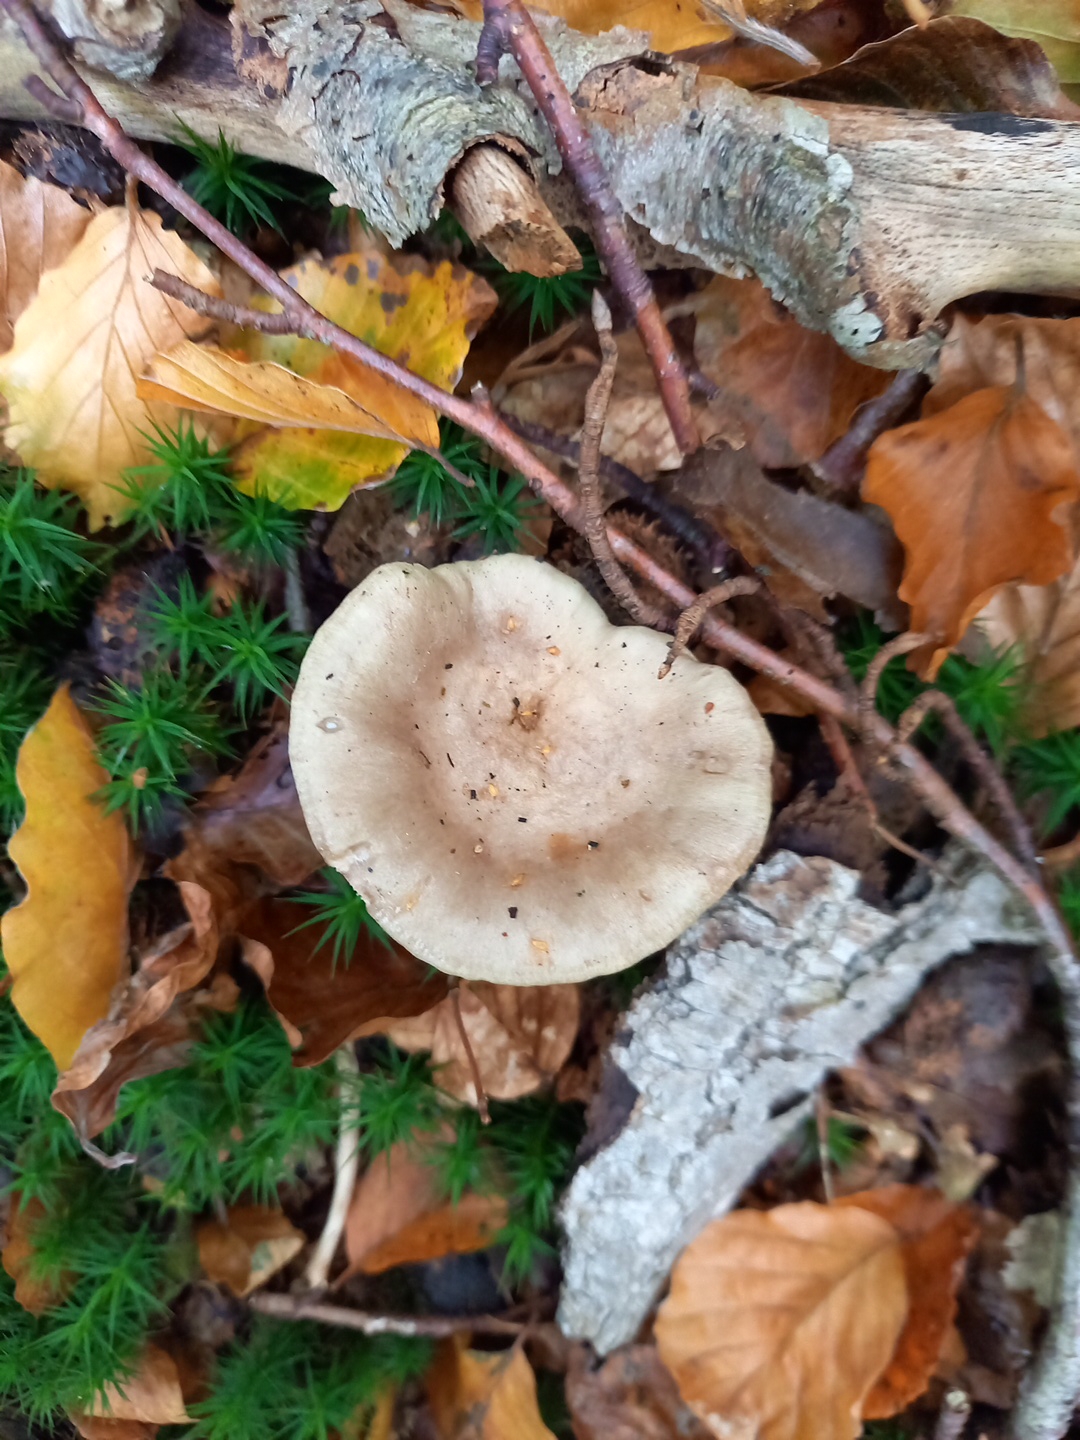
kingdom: Fungi
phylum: Basidiomycota
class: Agaricomycetes
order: Russulales
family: Russulaceae
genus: Lactarius
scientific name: Lactarius blennius
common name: dråbeplettet mælkehat
